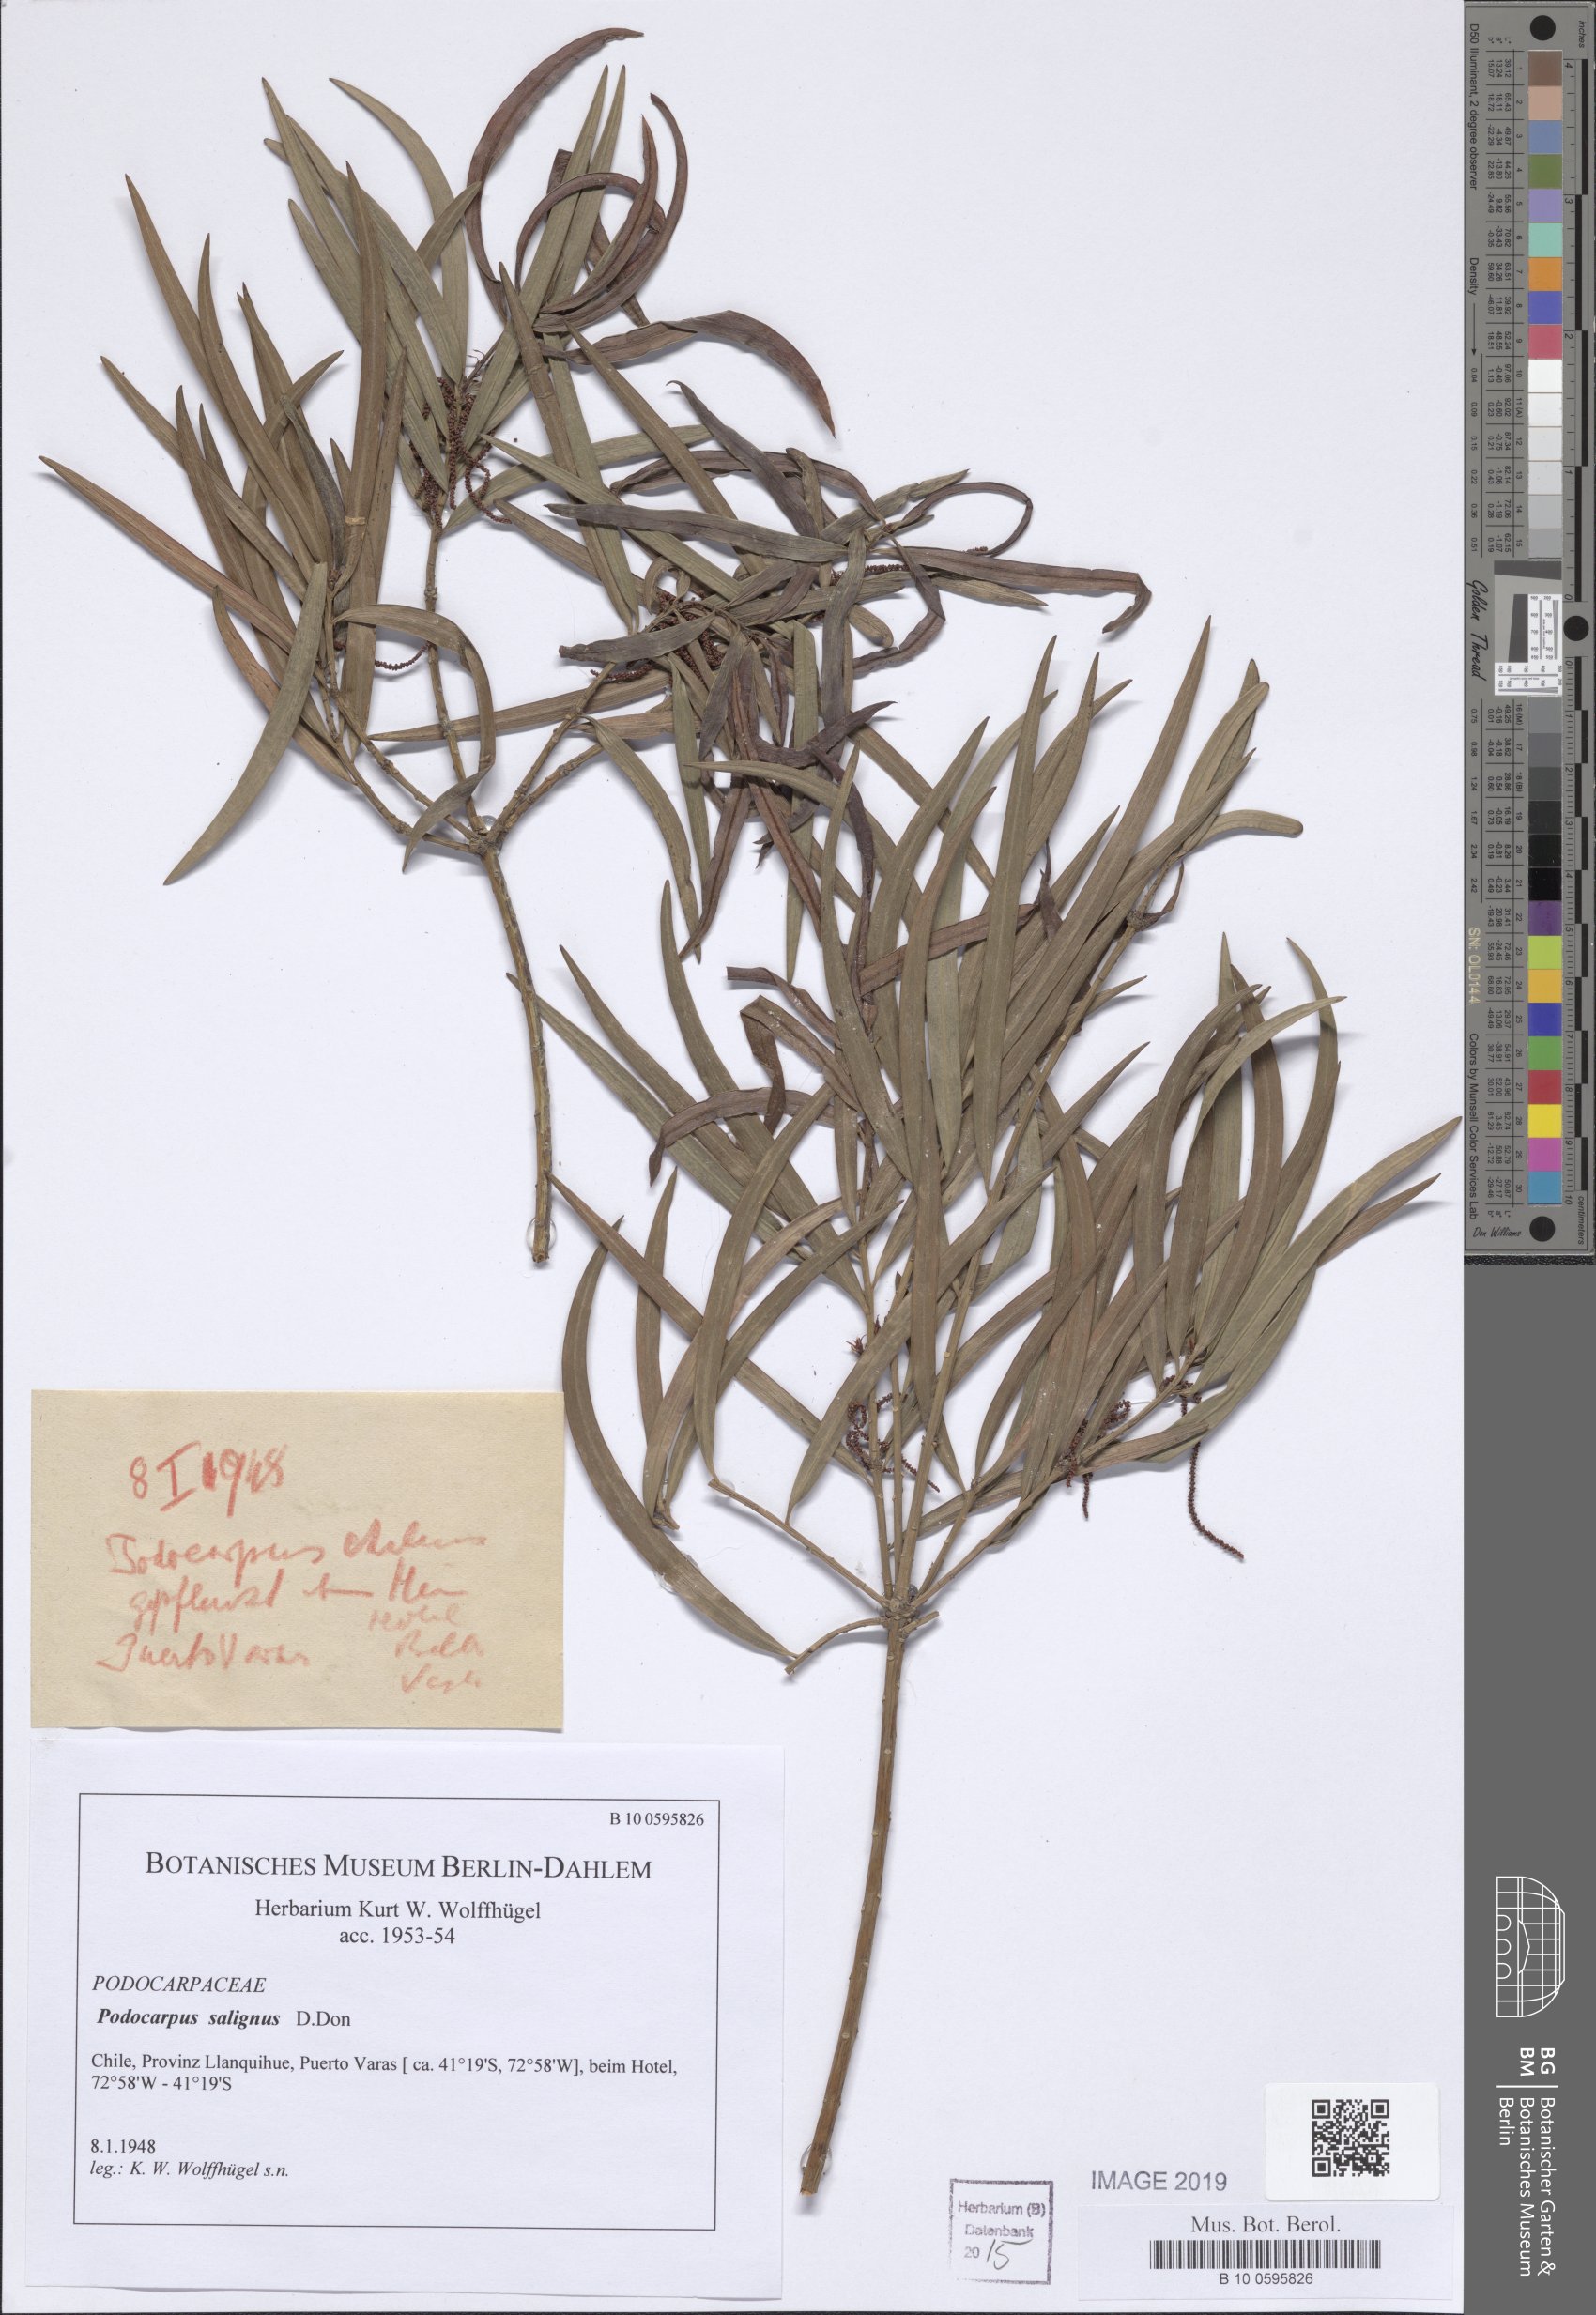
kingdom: Plantae
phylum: Tracheophyta
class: Pinopsida
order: Pinales
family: Podocarpaceae
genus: Podocarpus
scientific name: Podocarpus salignus
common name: Willow-leaf podocarp
